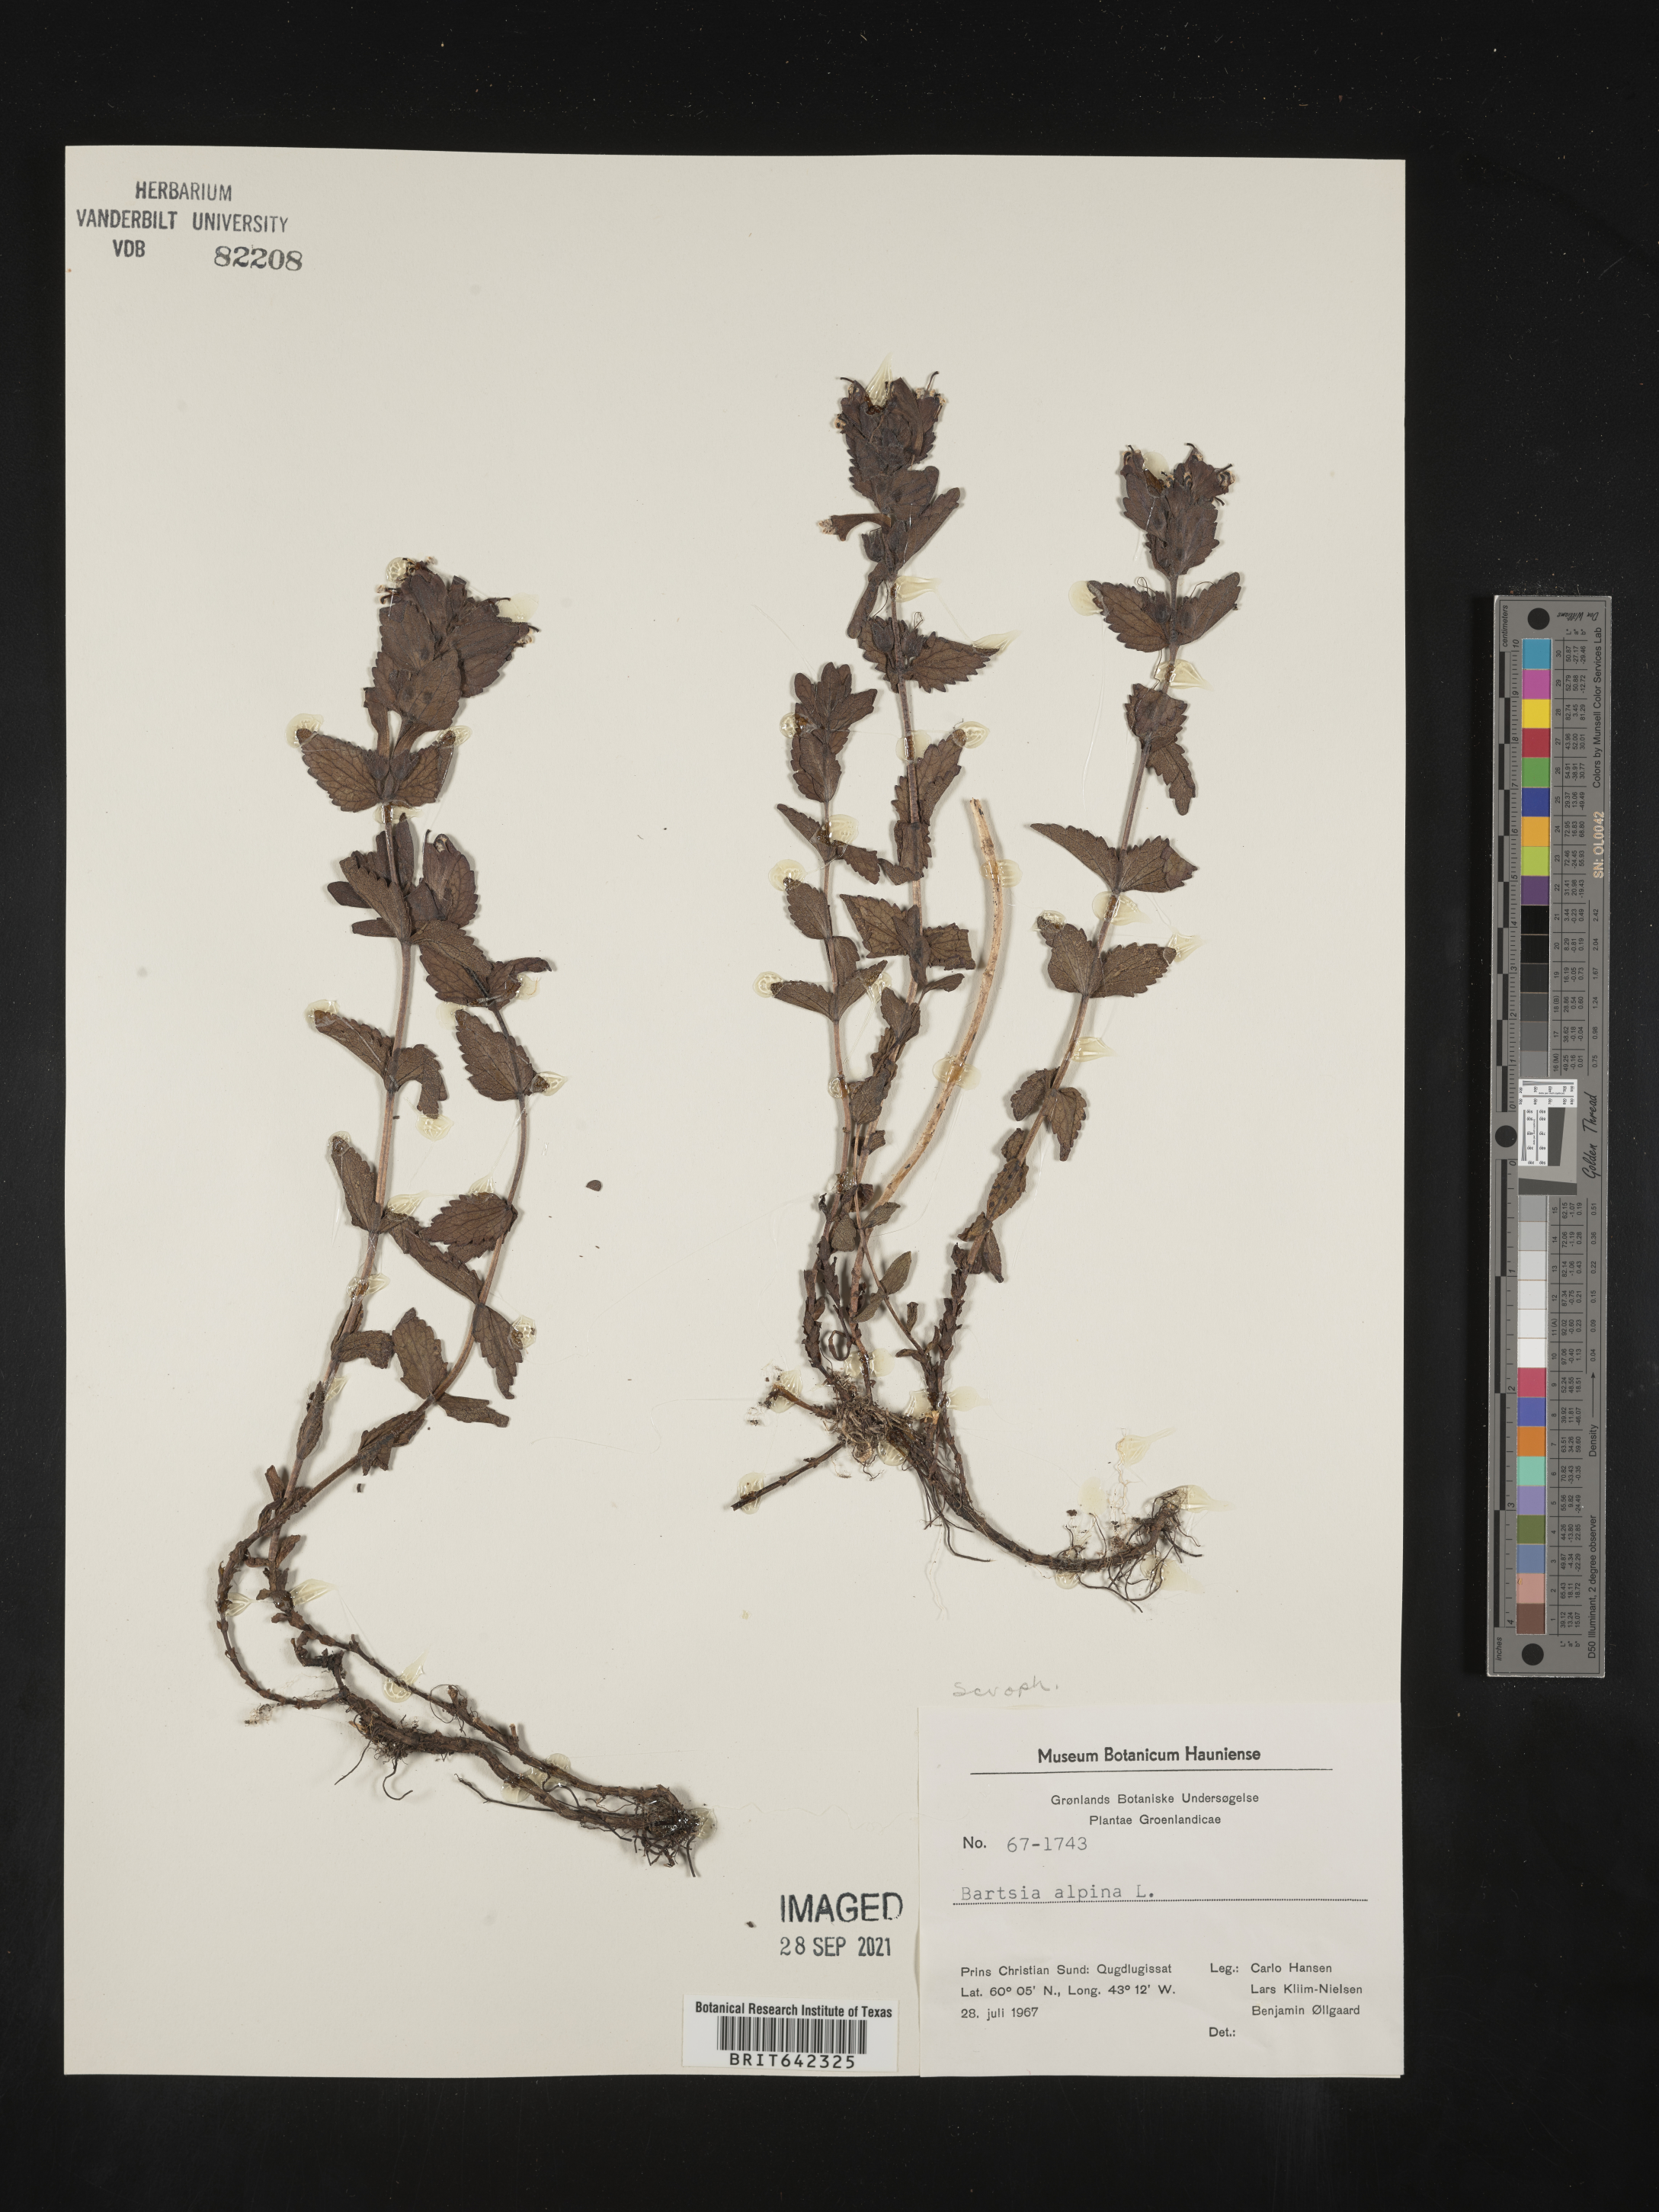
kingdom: Plantae
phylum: Tracheophyta
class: Magnoliopsida
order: Lamiales
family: Orobanchaceae
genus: Bartsia
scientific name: Bartsia
